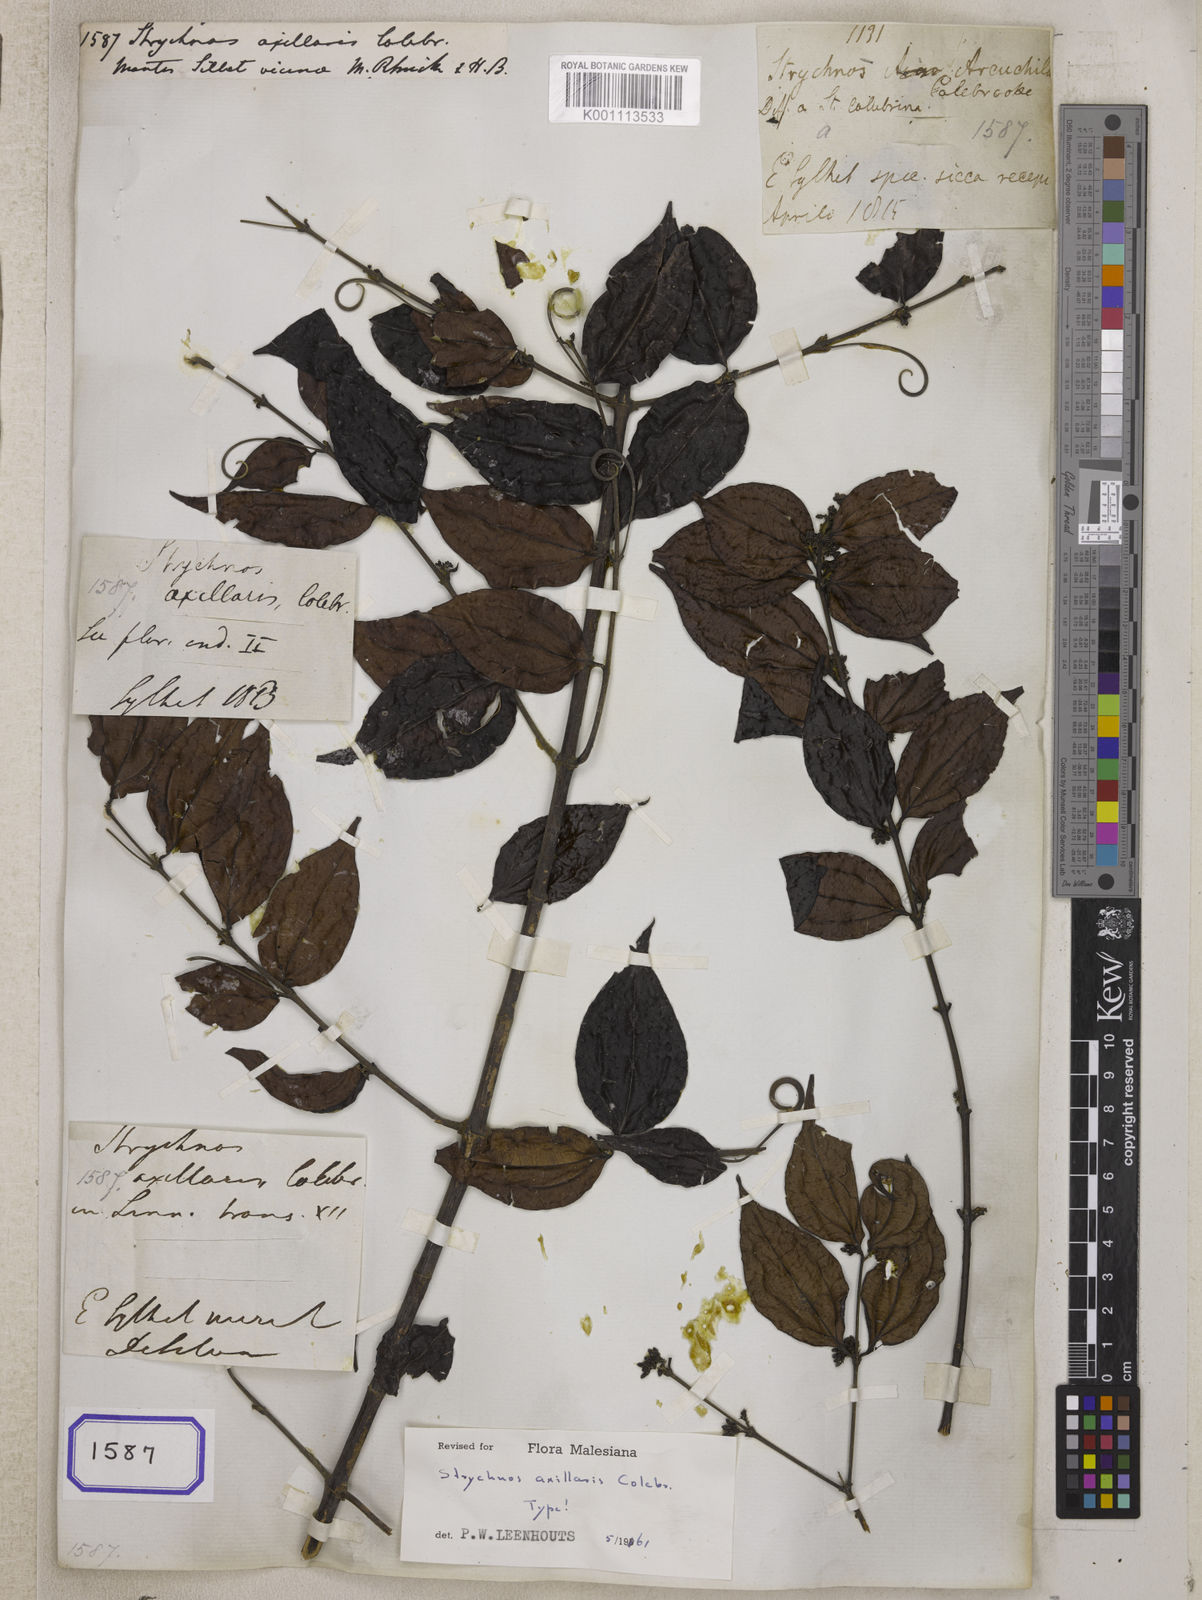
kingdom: Plantae
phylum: Tracheophyta
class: Magnoliopsida
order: Gentianales
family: Loganiaceae
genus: Strychnos
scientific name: Strychnos axillaris
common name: Strychninebush
